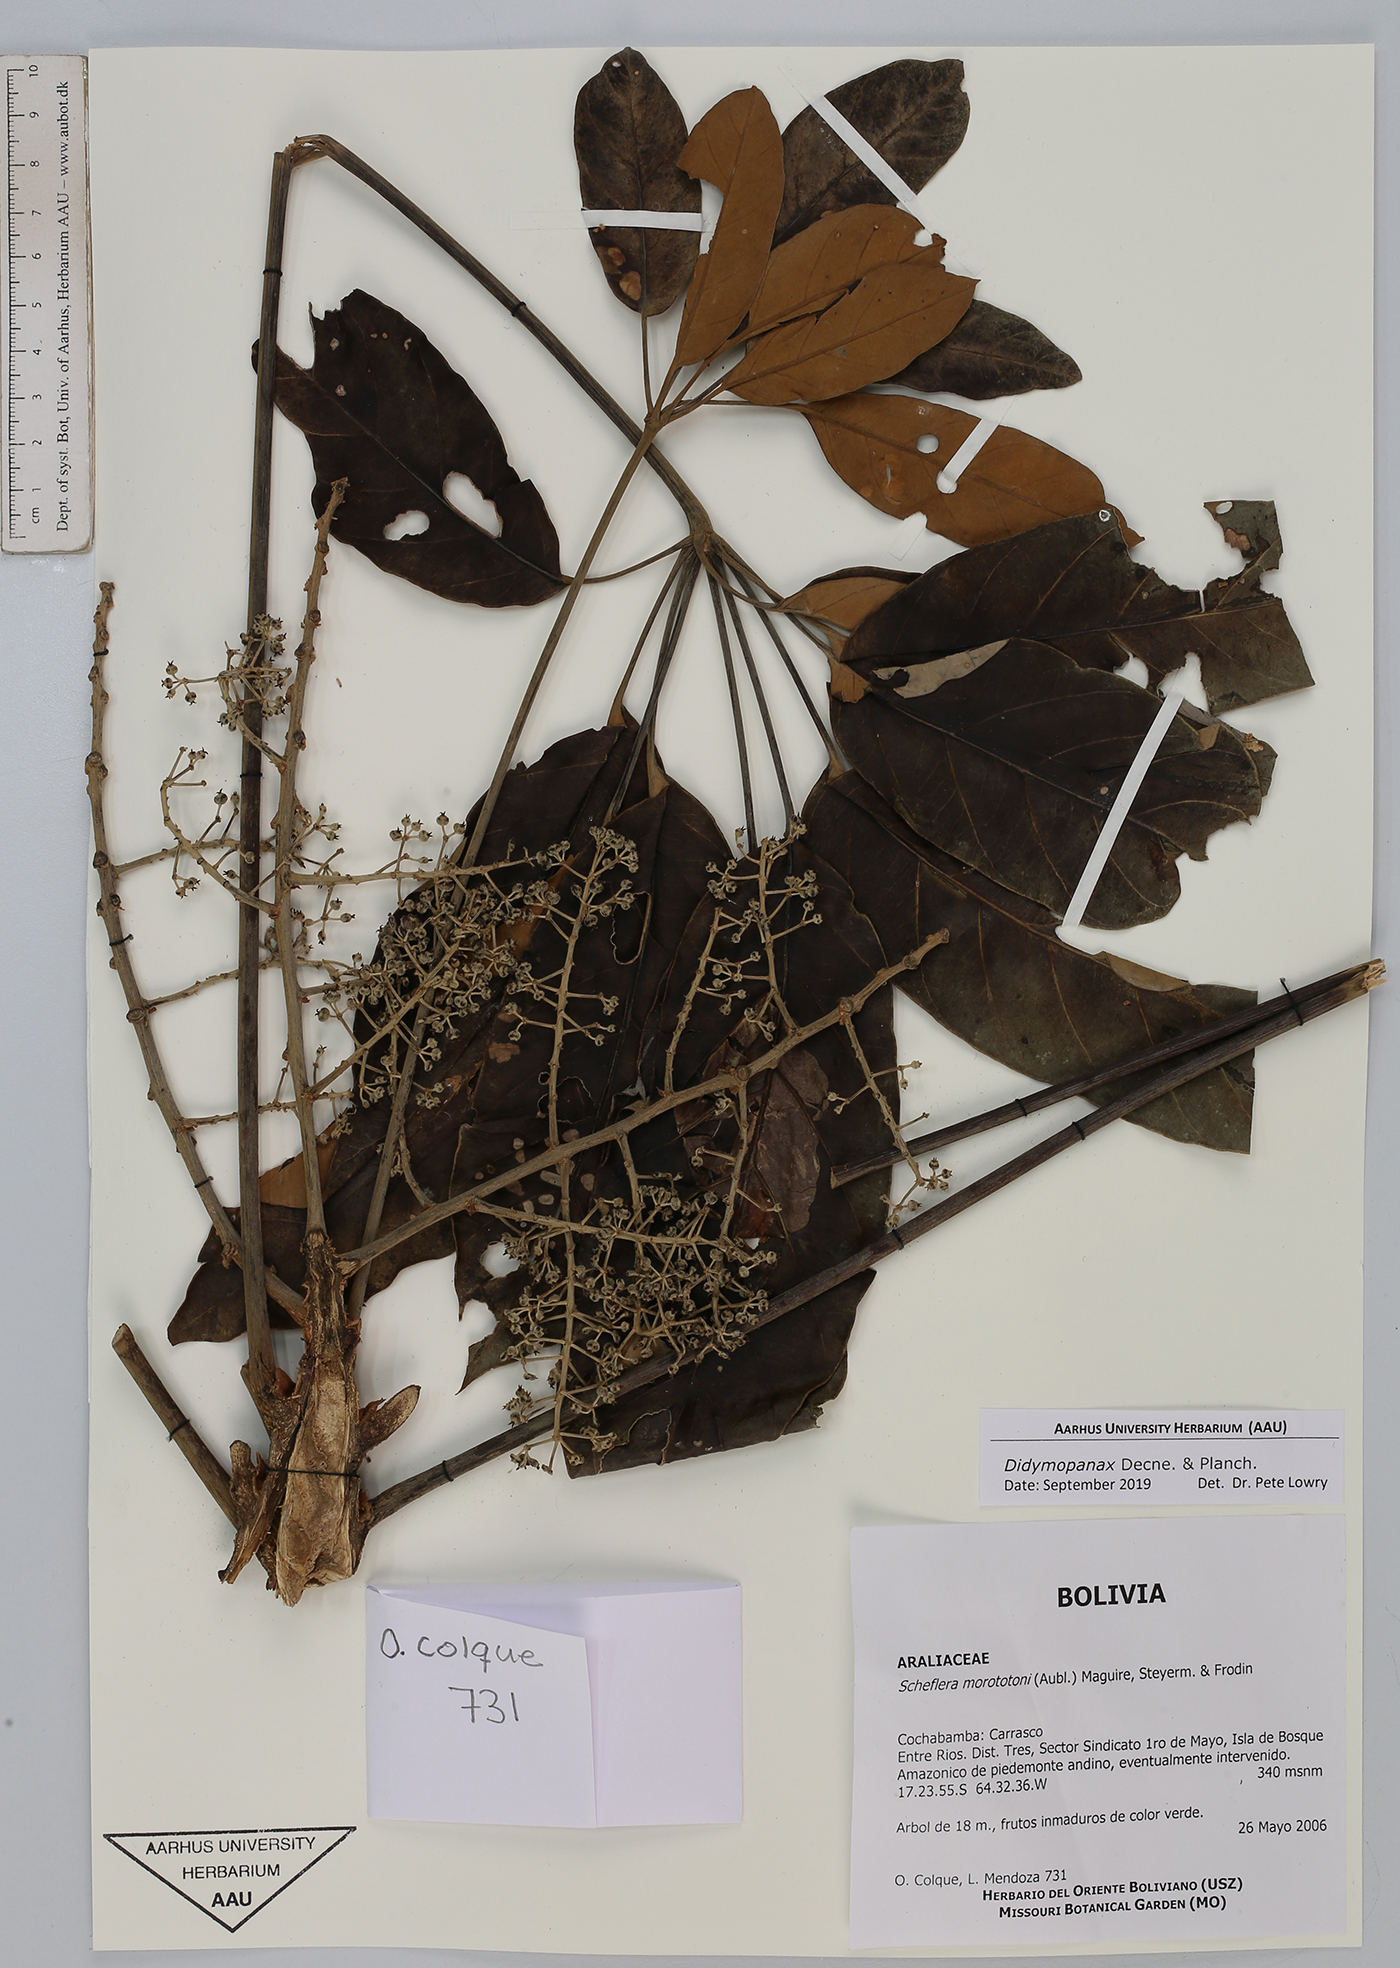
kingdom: Plantae
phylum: Tracheophyta
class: Magnoliopsida
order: Apiales
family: Araliaceae
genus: Didymopanax
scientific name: Didymopanax
